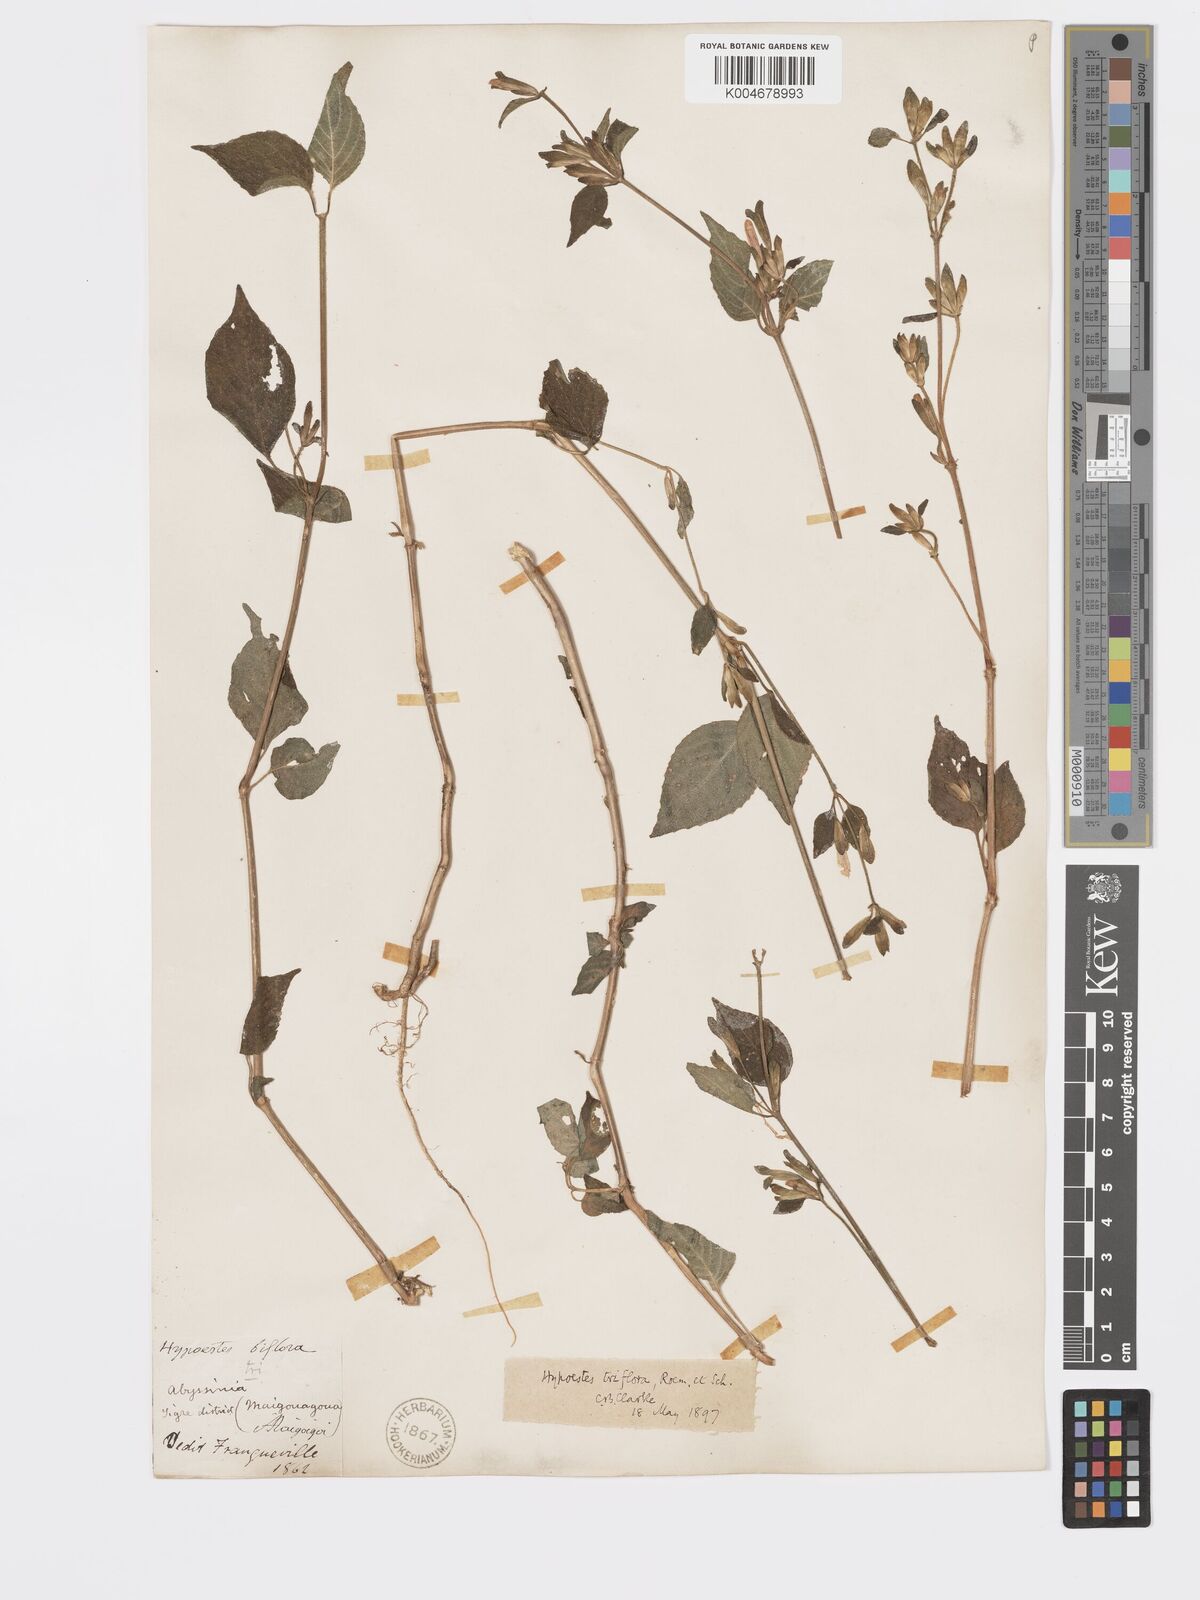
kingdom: Plantae
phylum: Tracheophyta
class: Magnoliopsida
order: Lamiales
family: Acanthaceae
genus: Hypoestes
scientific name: Hypoestes triflora
